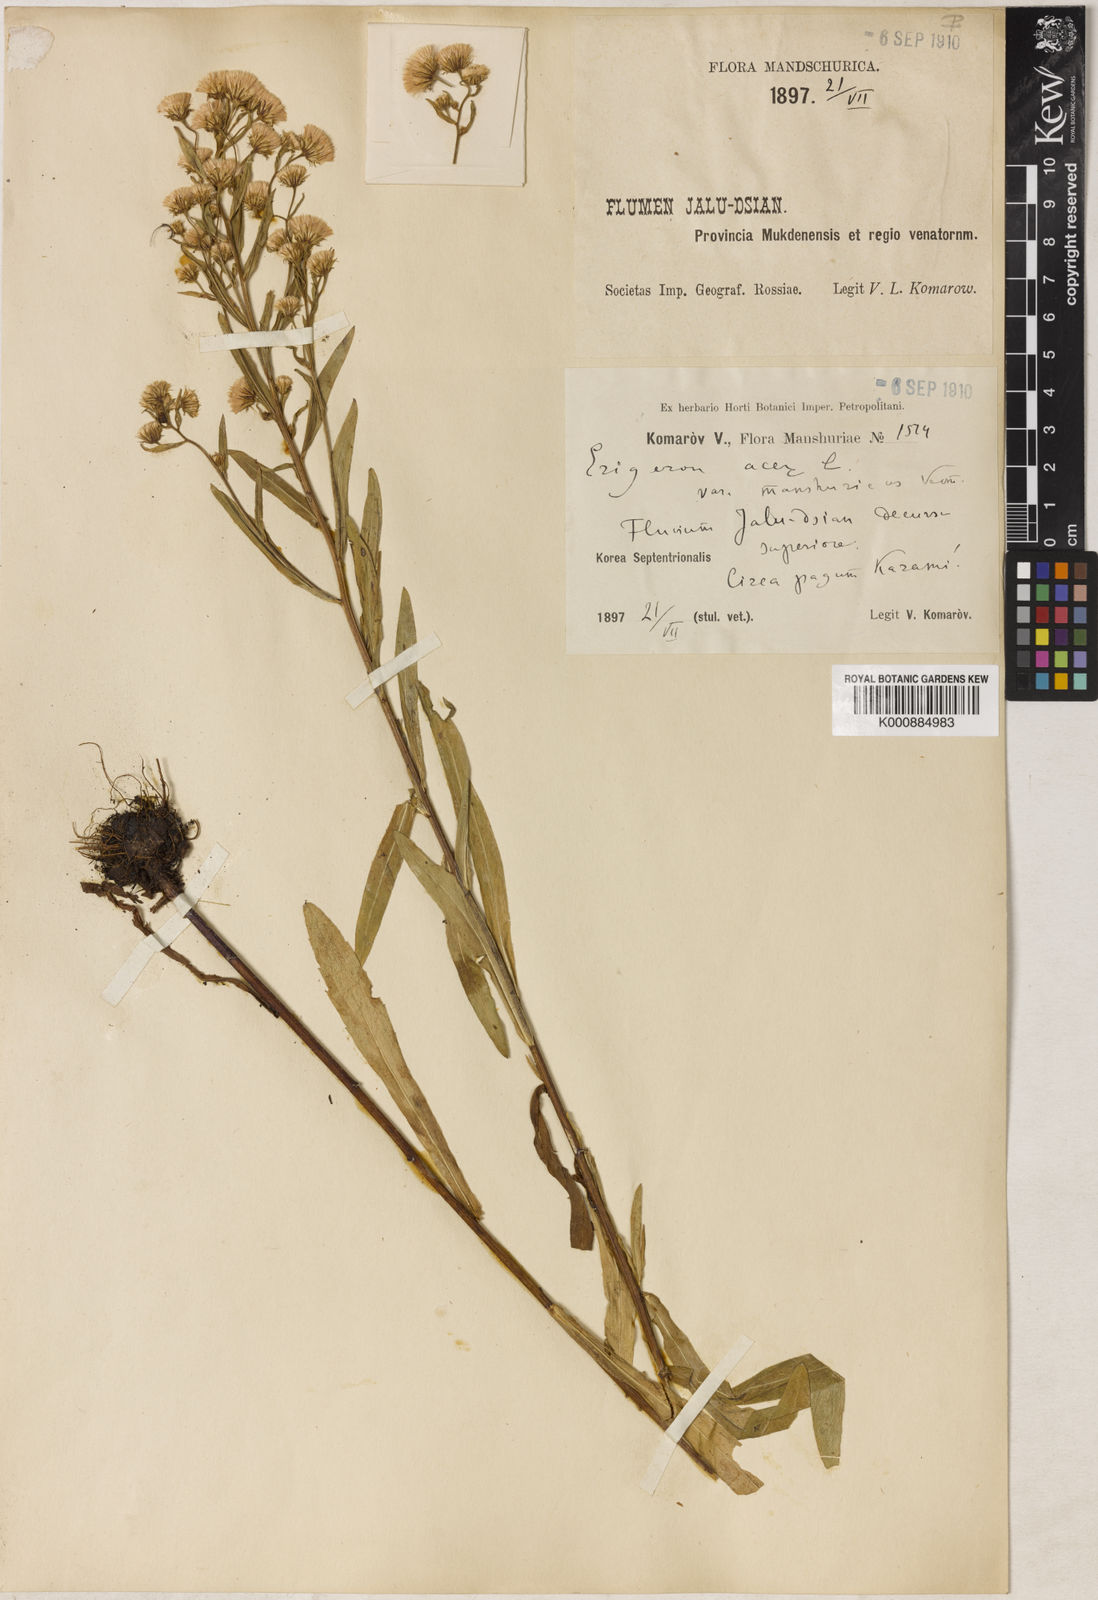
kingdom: Plantae
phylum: Tracheophyta
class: Magnoliopsida
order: Asterales
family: Asteraceae
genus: Erigeron
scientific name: Erigeron acris
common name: Blue fleabane
